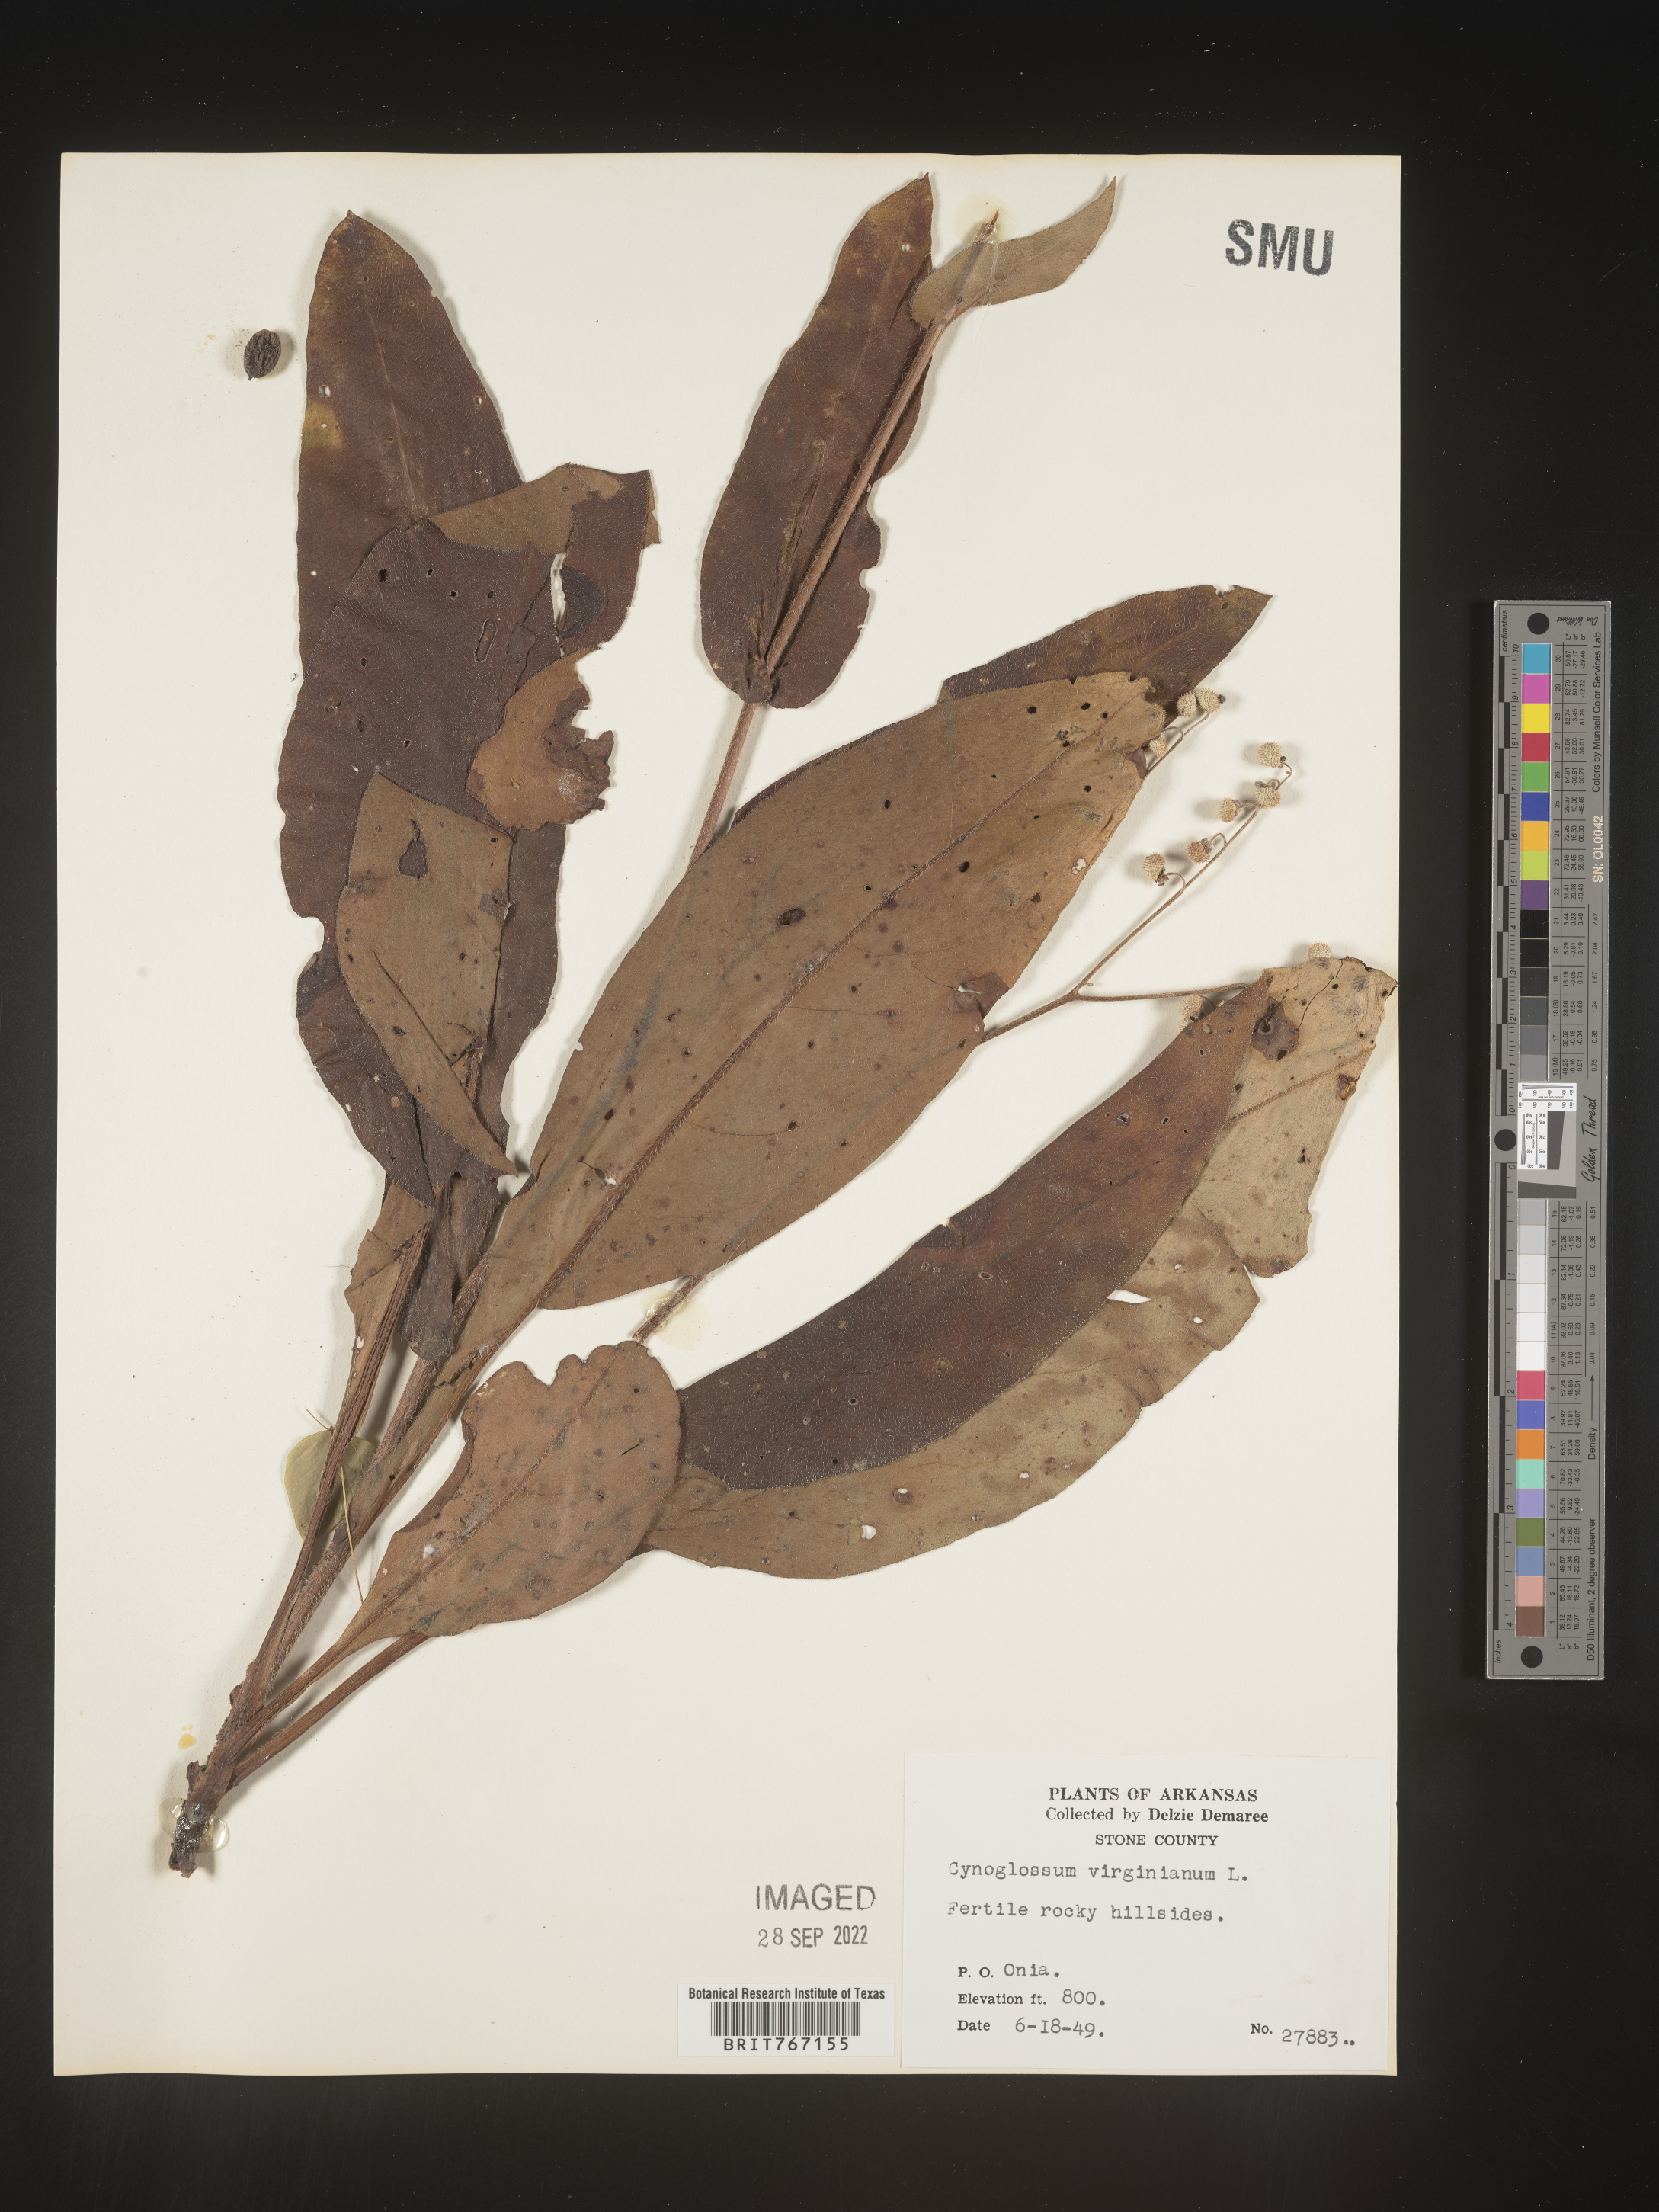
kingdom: Plantae
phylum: Tracheophyta
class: Magnoliopsida
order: Boraginales
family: Boraginaceae
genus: Andersonglossum
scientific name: Andersonglossum virginianum
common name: Wild comfrey
